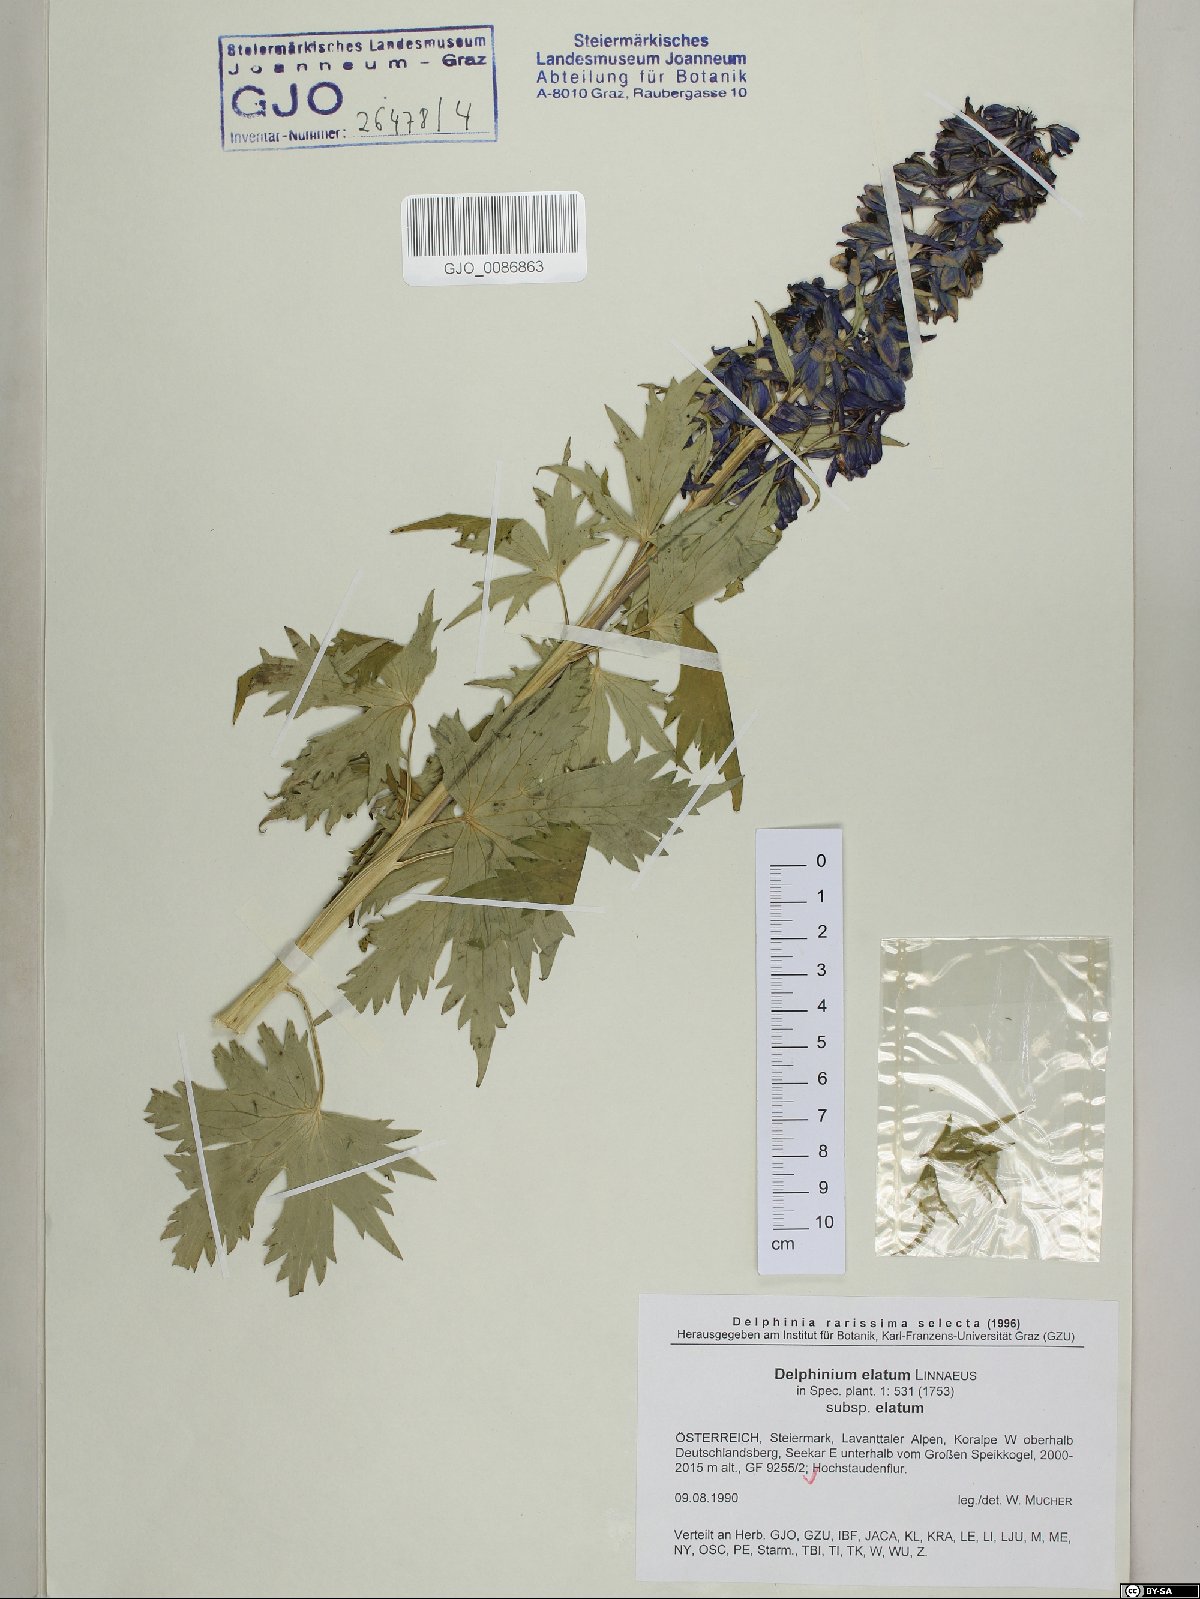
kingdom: Plantae
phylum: Tracheophyta
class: Magnoliopsida
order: Ranunculales
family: Ranunculaceae
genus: Delphinium
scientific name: Delphinium elatum
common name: Candle larkspur
